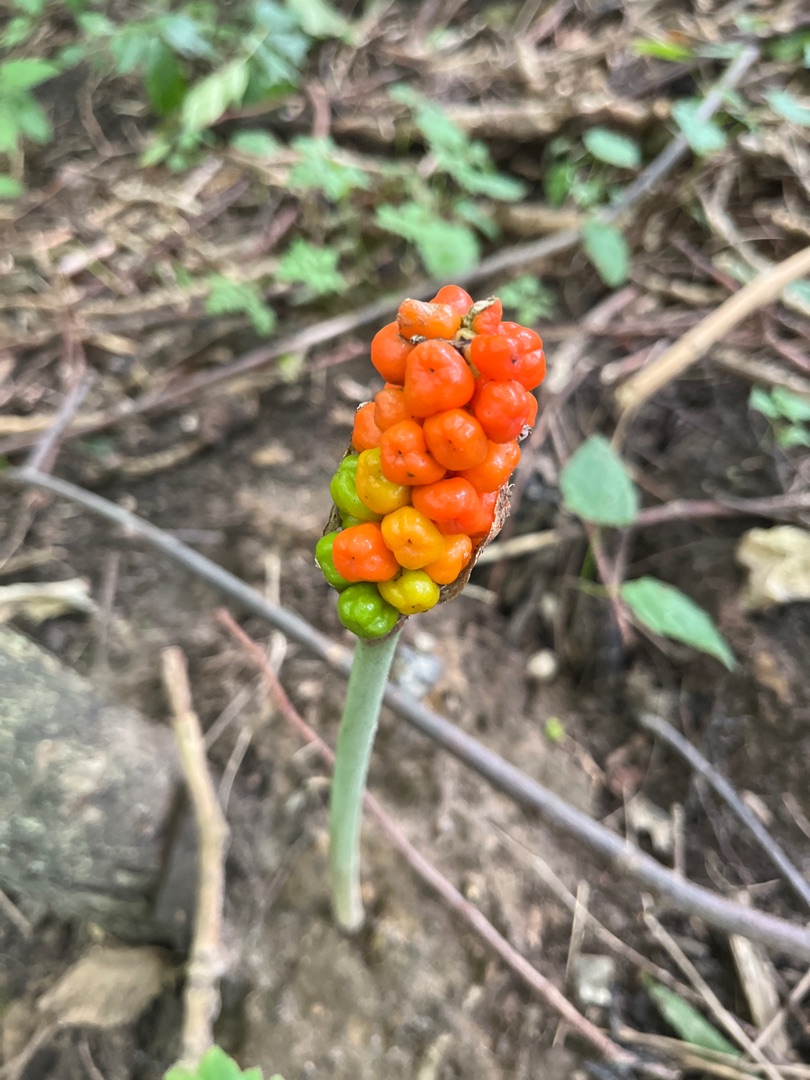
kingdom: Plantae
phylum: Tracheophyta
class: Liliopsida
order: Alismatales
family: Araceae
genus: Arum
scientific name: Arum
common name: Arumslægten
